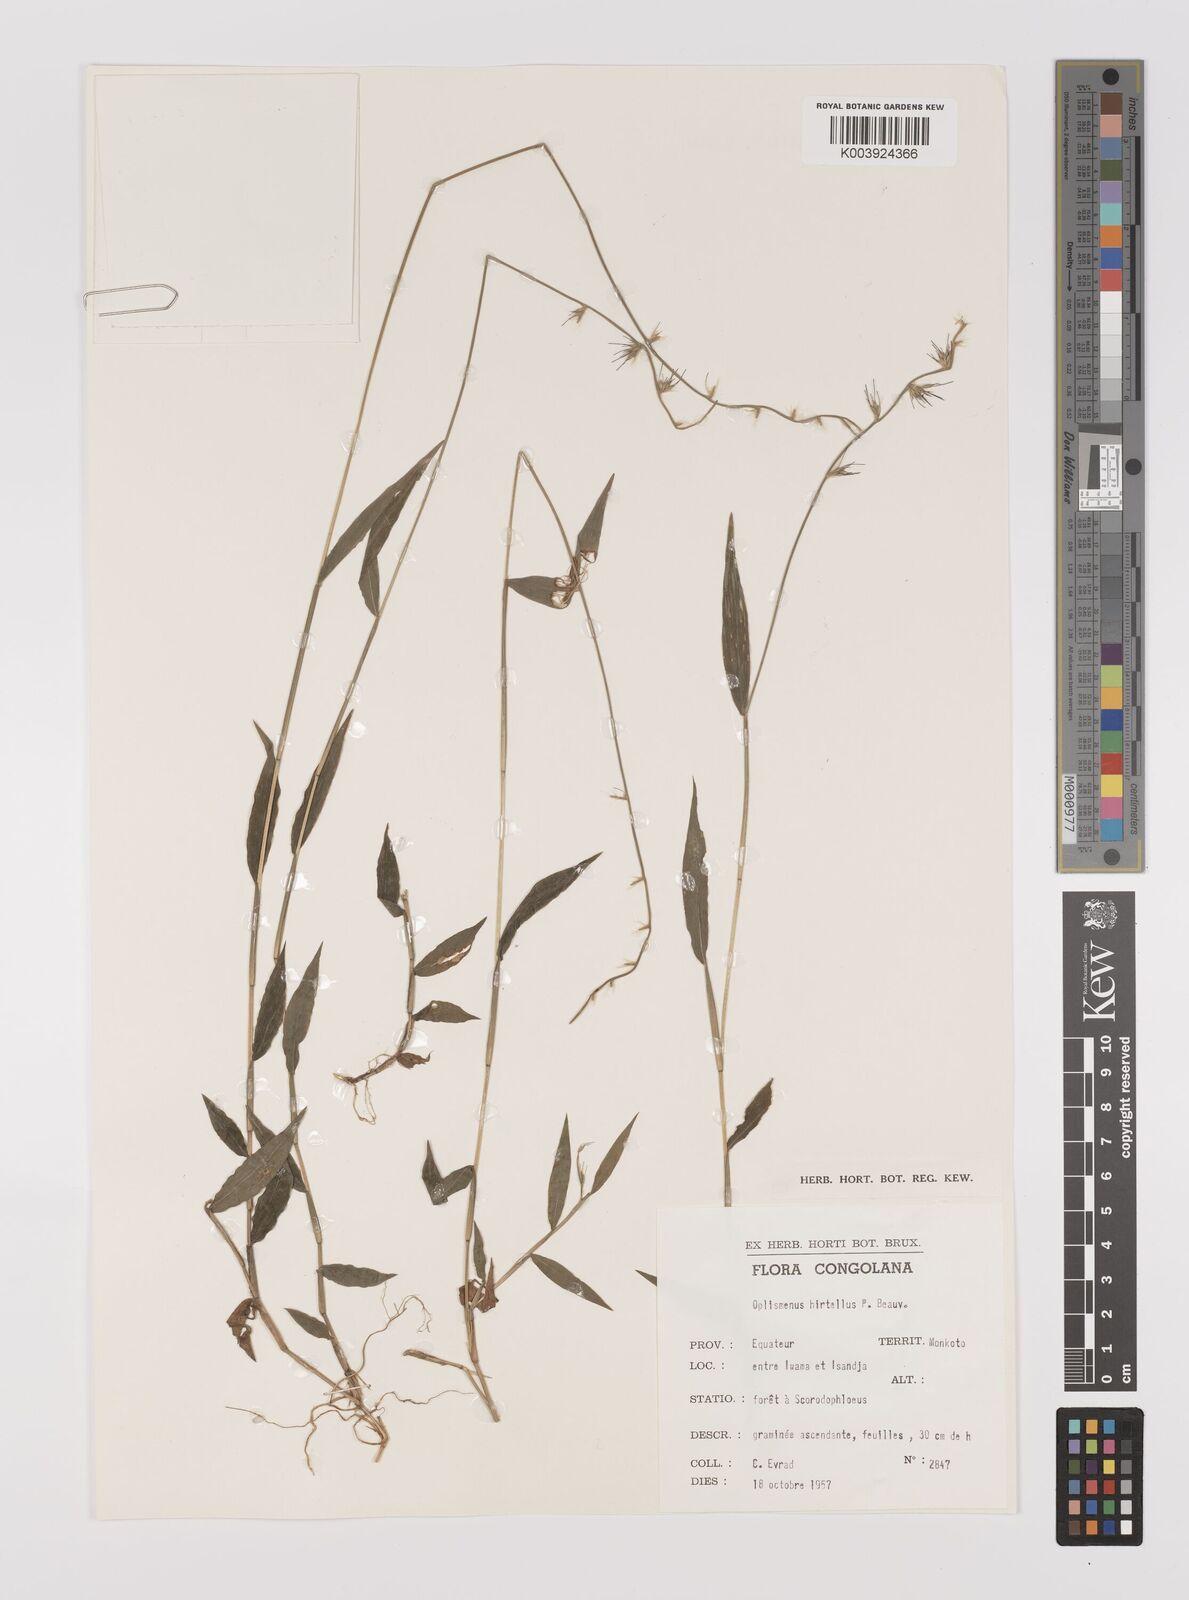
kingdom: Plantae
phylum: Tracheophyta
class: Liliopsida
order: Poales
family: Poaceae
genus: Oplismenus
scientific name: Oplismenus hirtellus
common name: Basketgrass
